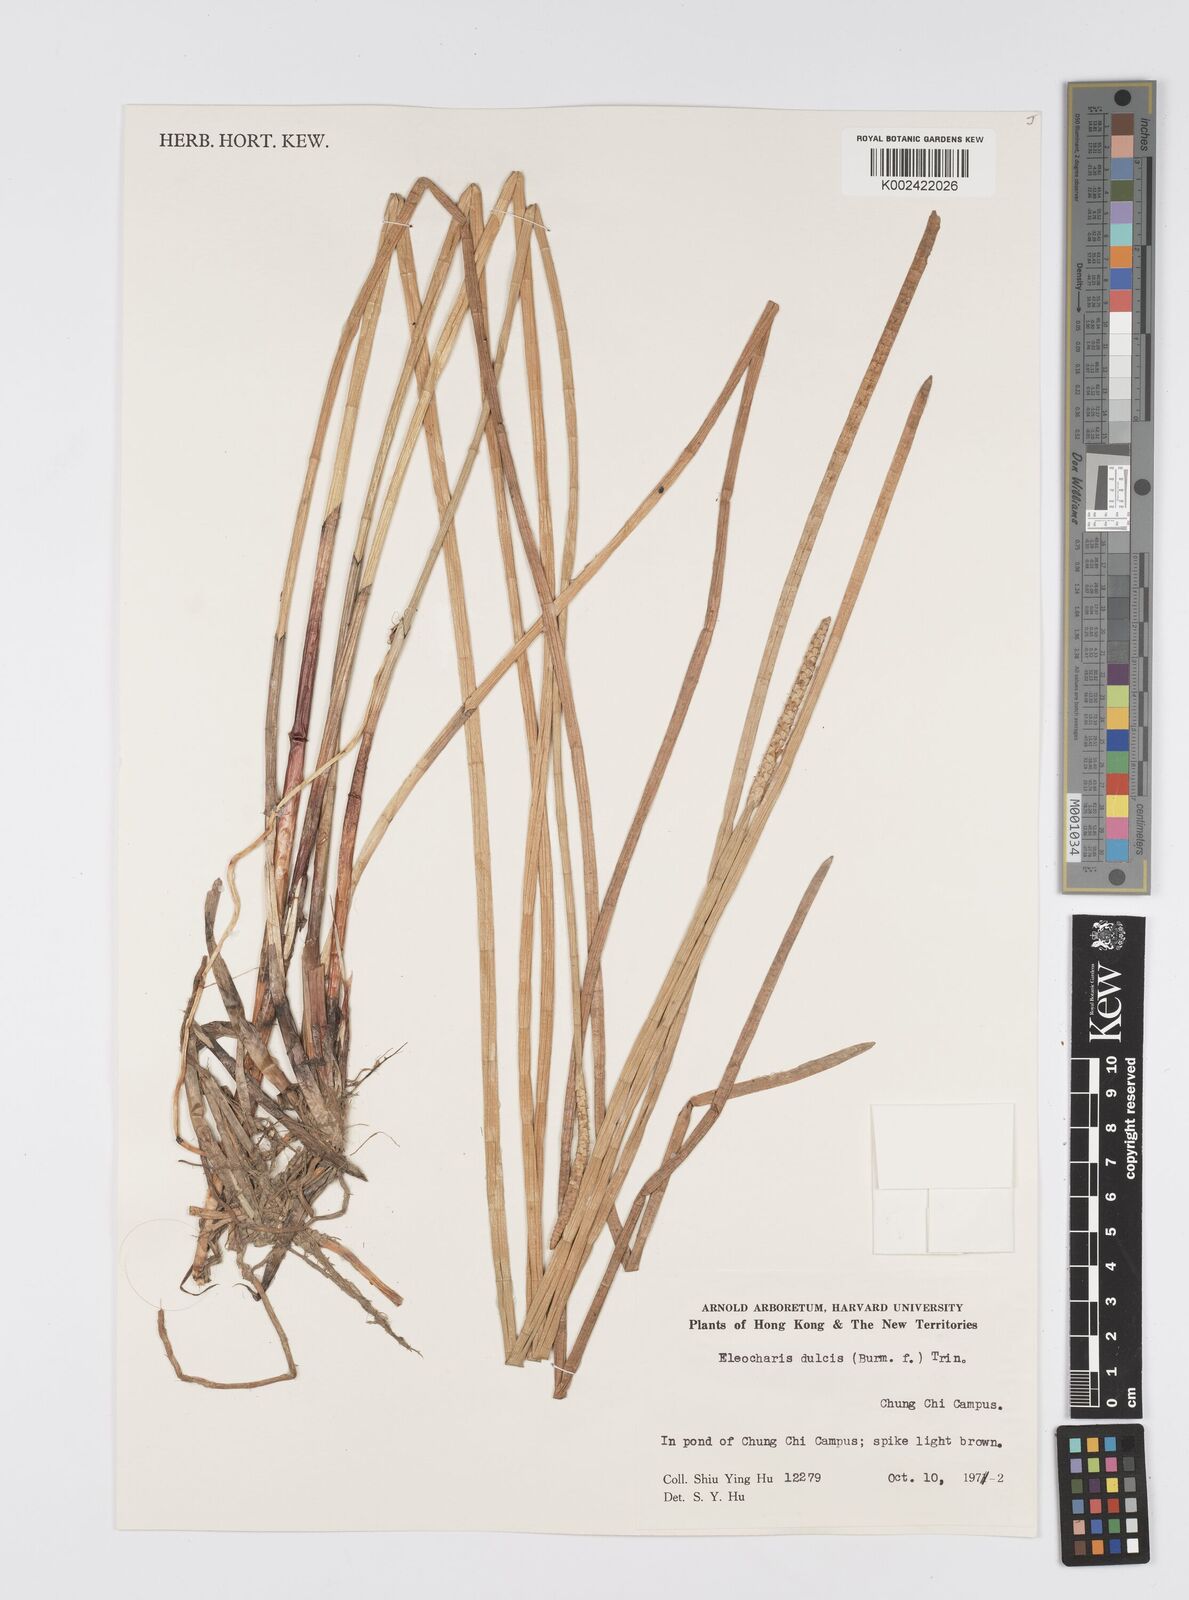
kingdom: Plantae
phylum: Tracheophyta
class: Liliopsida
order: Poales
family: Cyperaceae
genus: Eleocharis
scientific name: Eleocharis dulcis
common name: Chinese water chestnut
